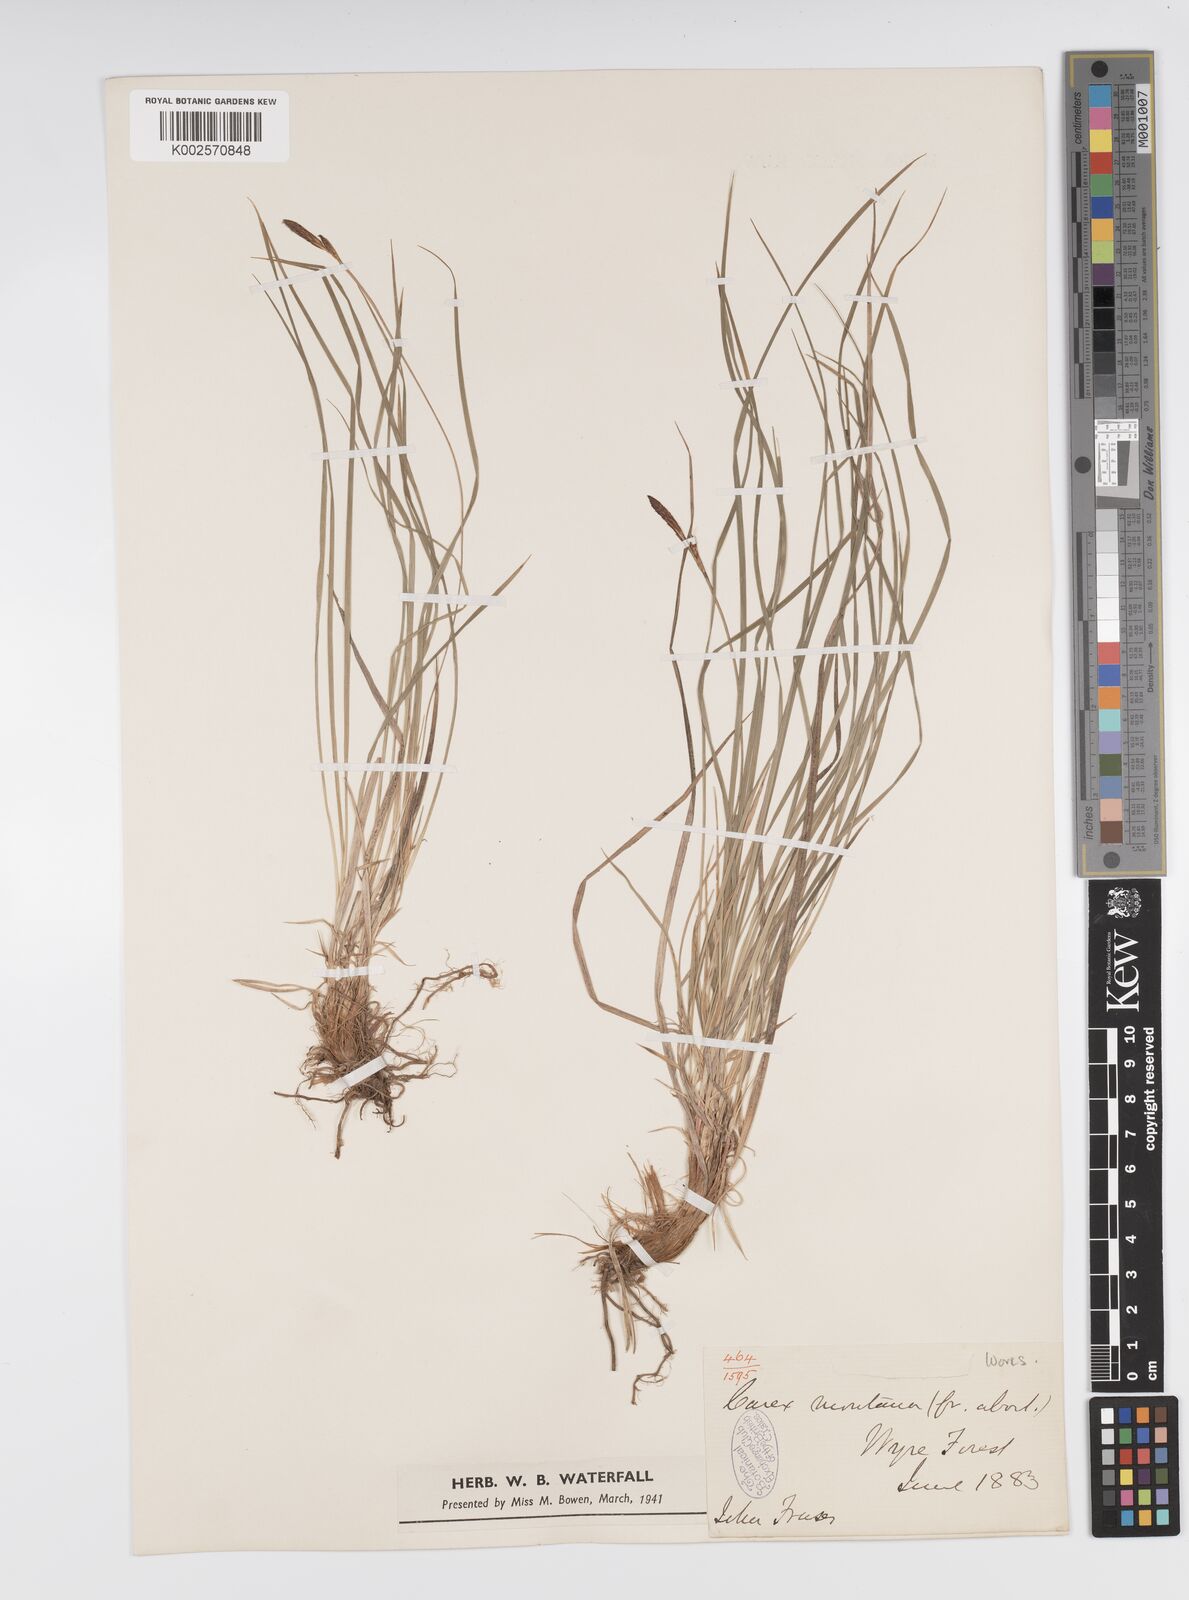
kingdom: Plantae
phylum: Tracheophyta
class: Liliopsida
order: Poales
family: Cyperaceae
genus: Carex
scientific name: Carex montana
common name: Soft-leaved sedge
